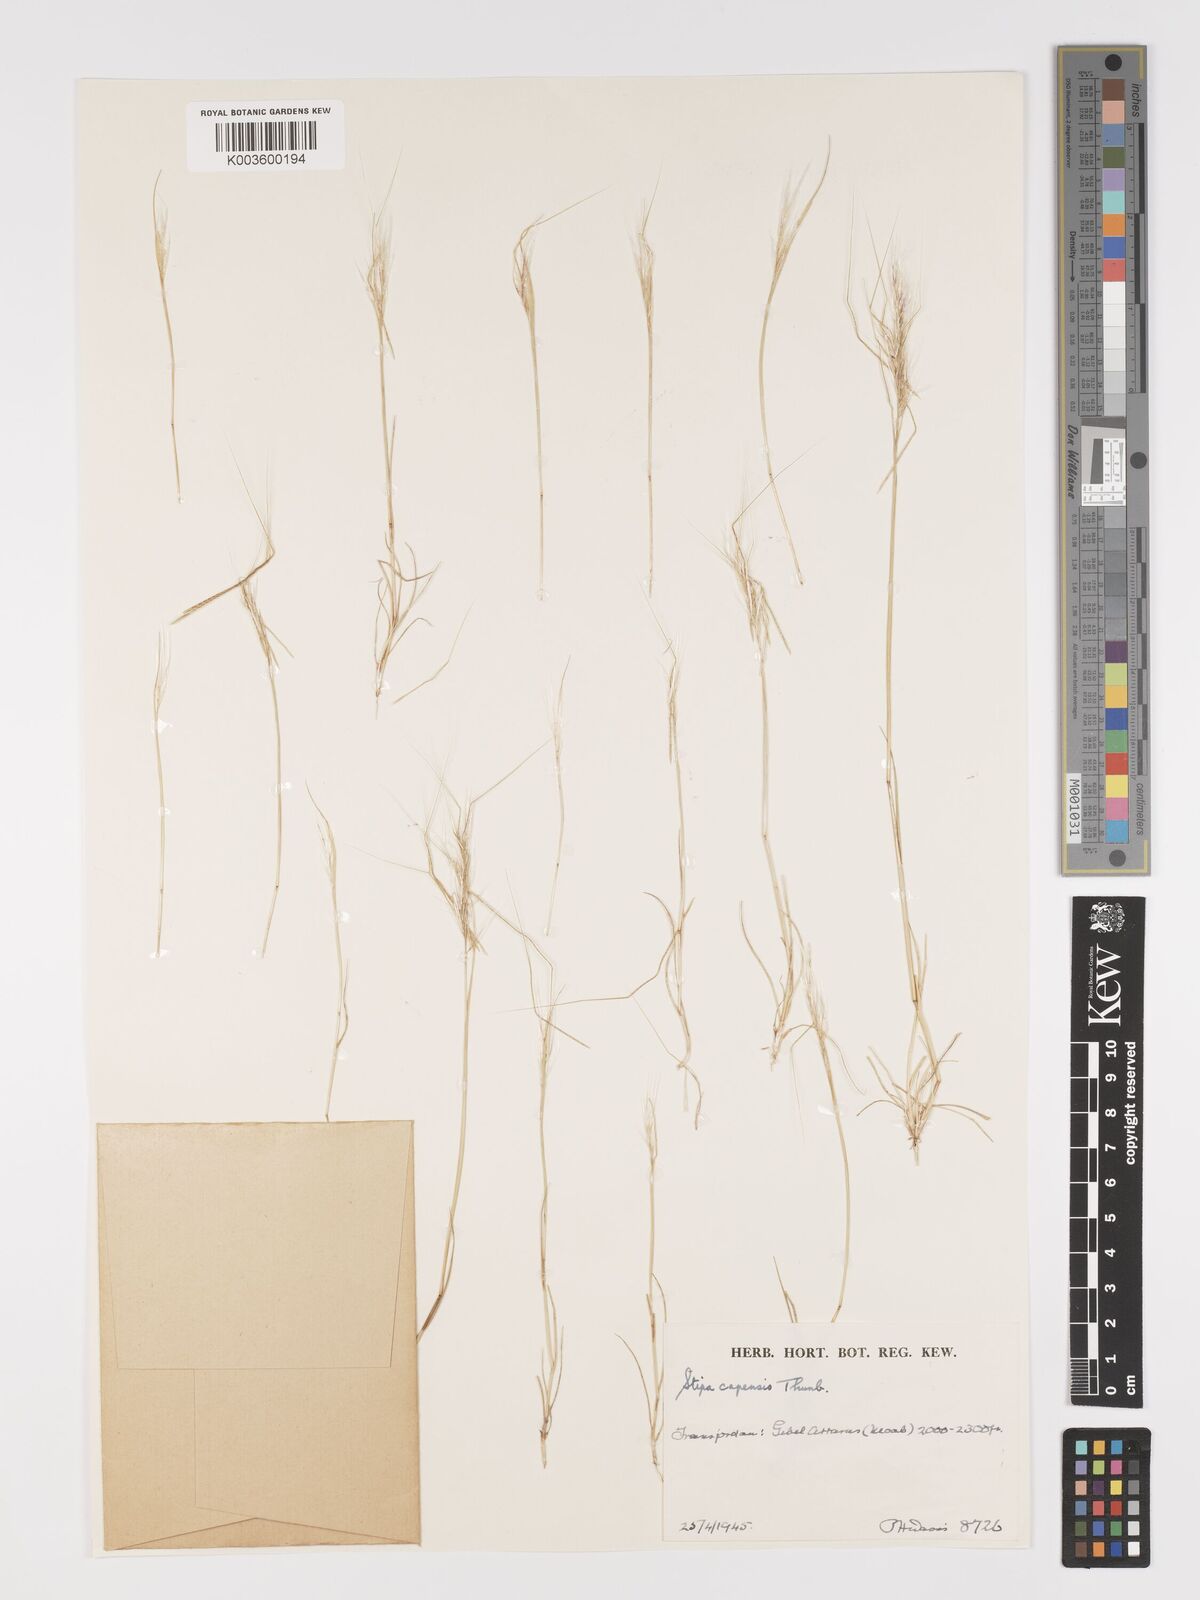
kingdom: Plantae
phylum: Tracheophyta
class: Liliopsida
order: Poales
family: Poaceae
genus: Stipellula
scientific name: Stipellula capensis
